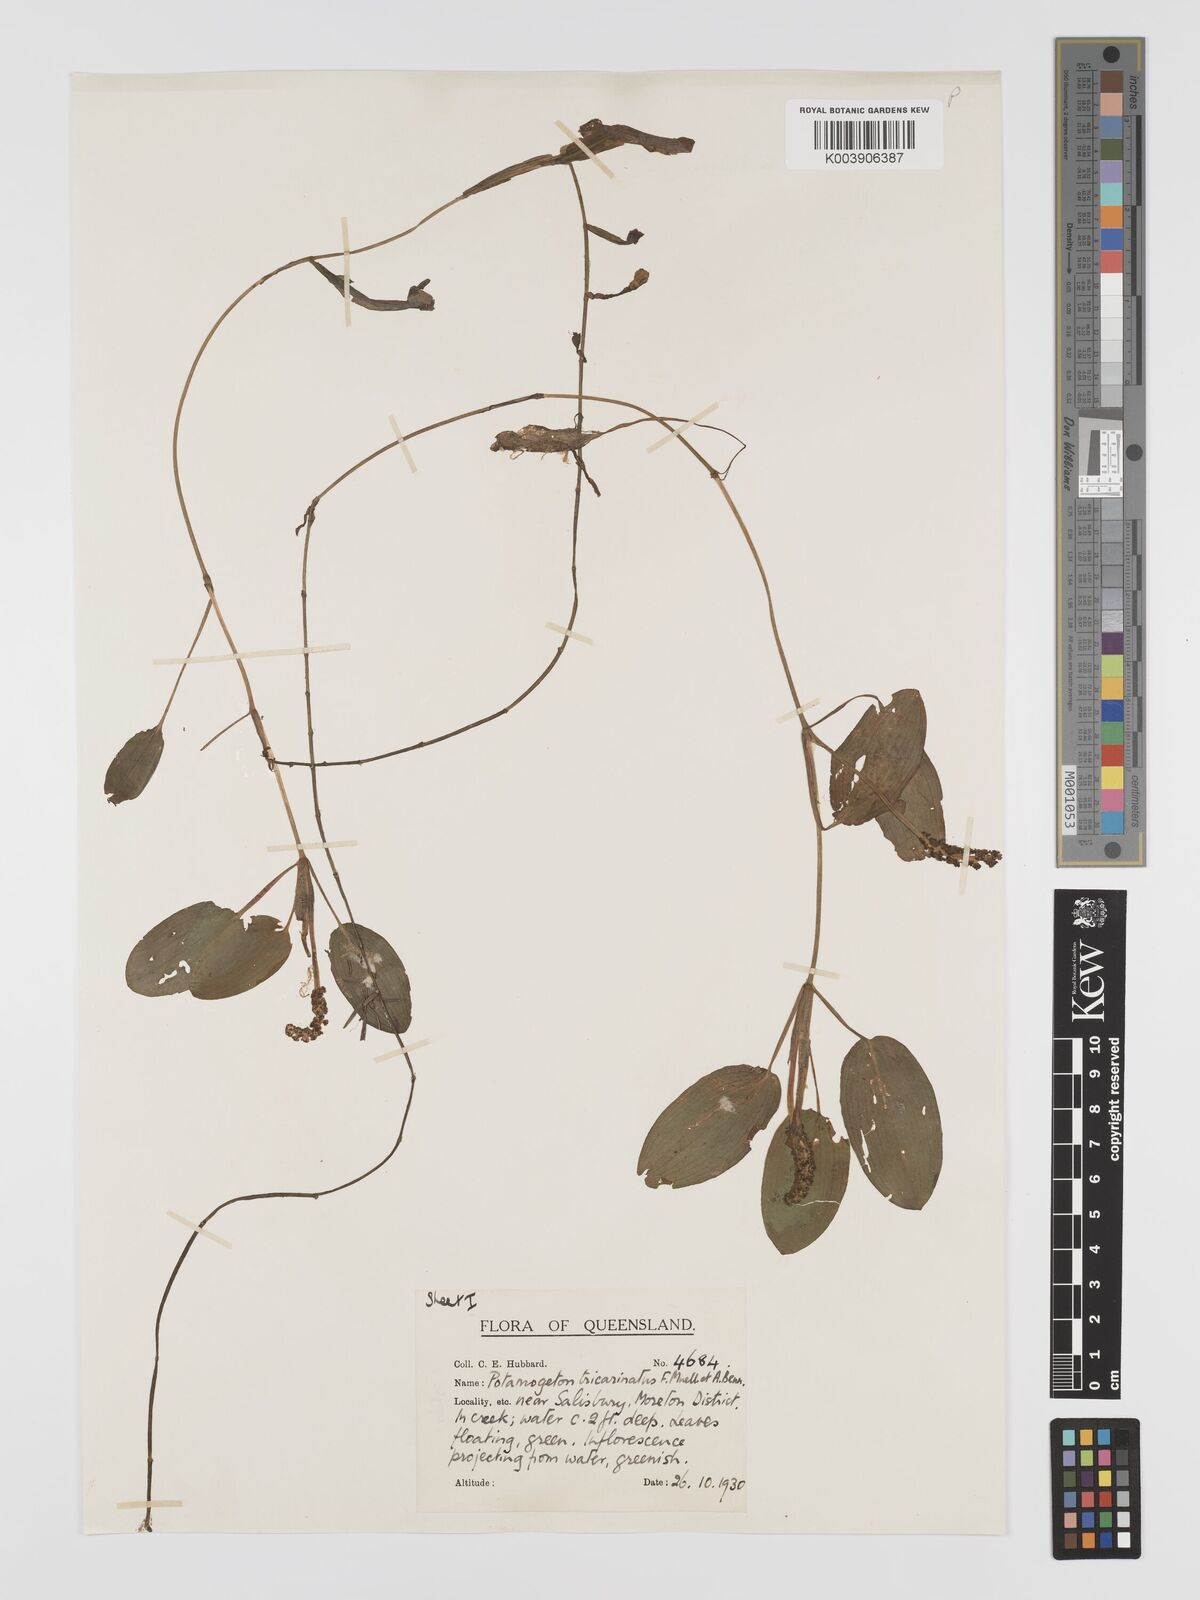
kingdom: Plantae
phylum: Tracheophyta
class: Liliopsida
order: Alismatales
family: Potamogetonaceae
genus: Potamogeton
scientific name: Potamogeton tricarinatus
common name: Pondweed
